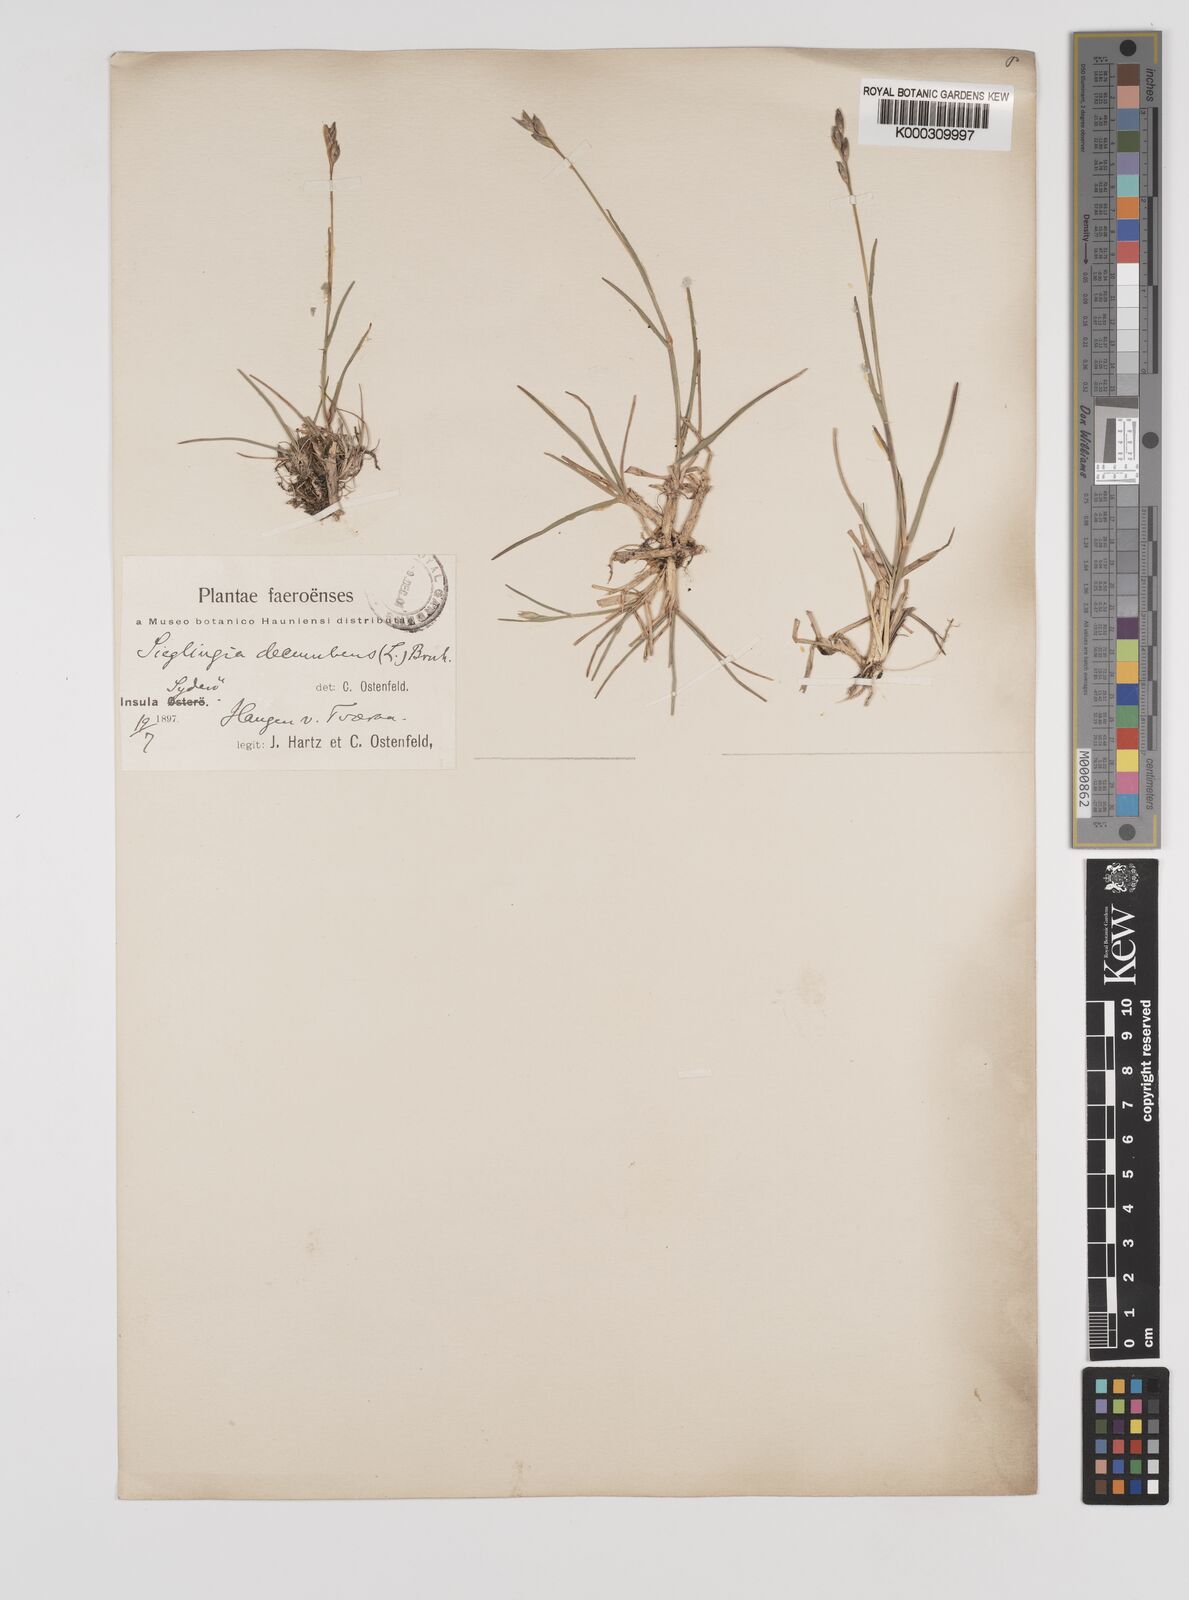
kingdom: Plantae
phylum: Tracheophyta
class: Liliopsida
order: Poales
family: Poaceae
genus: Danthonia
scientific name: Danthonia decumbens
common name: Common heathgrass
